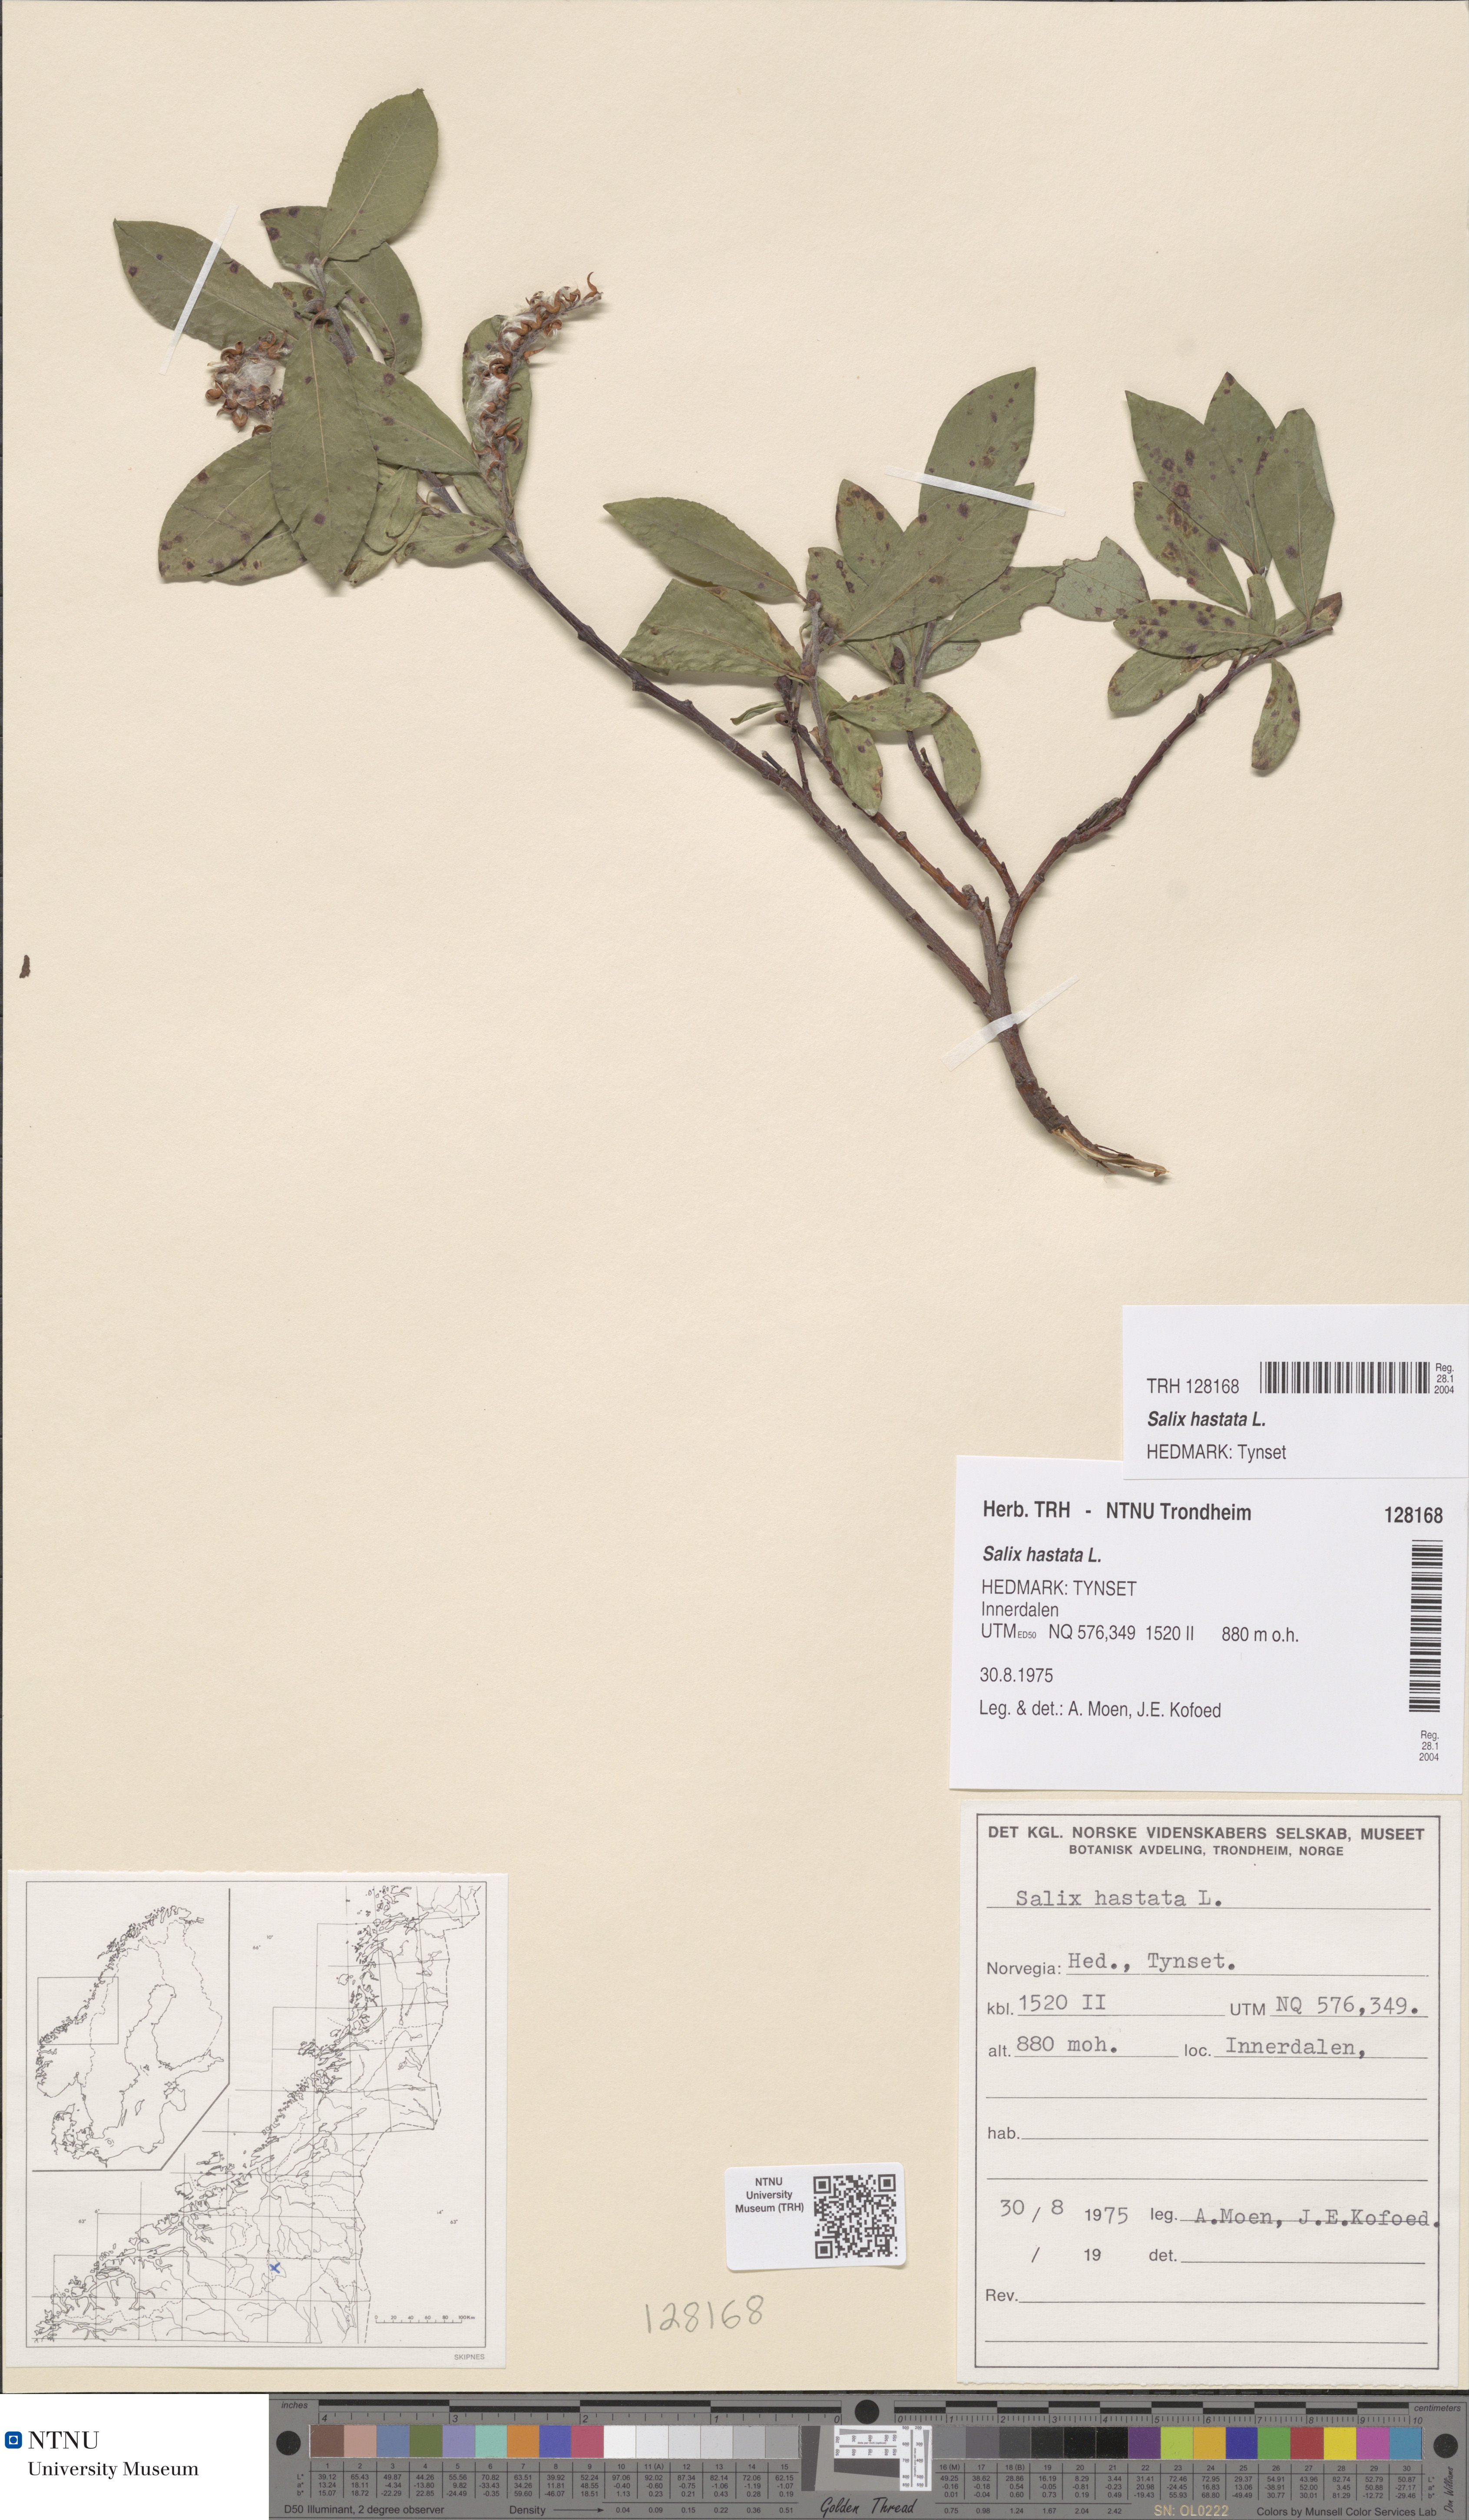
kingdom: Plantae
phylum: Tracheophyta
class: Magnoliopsida
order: Malpighiales
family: Salicaceae
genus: Salix
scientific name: Salix hastata
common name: Halberd willow
